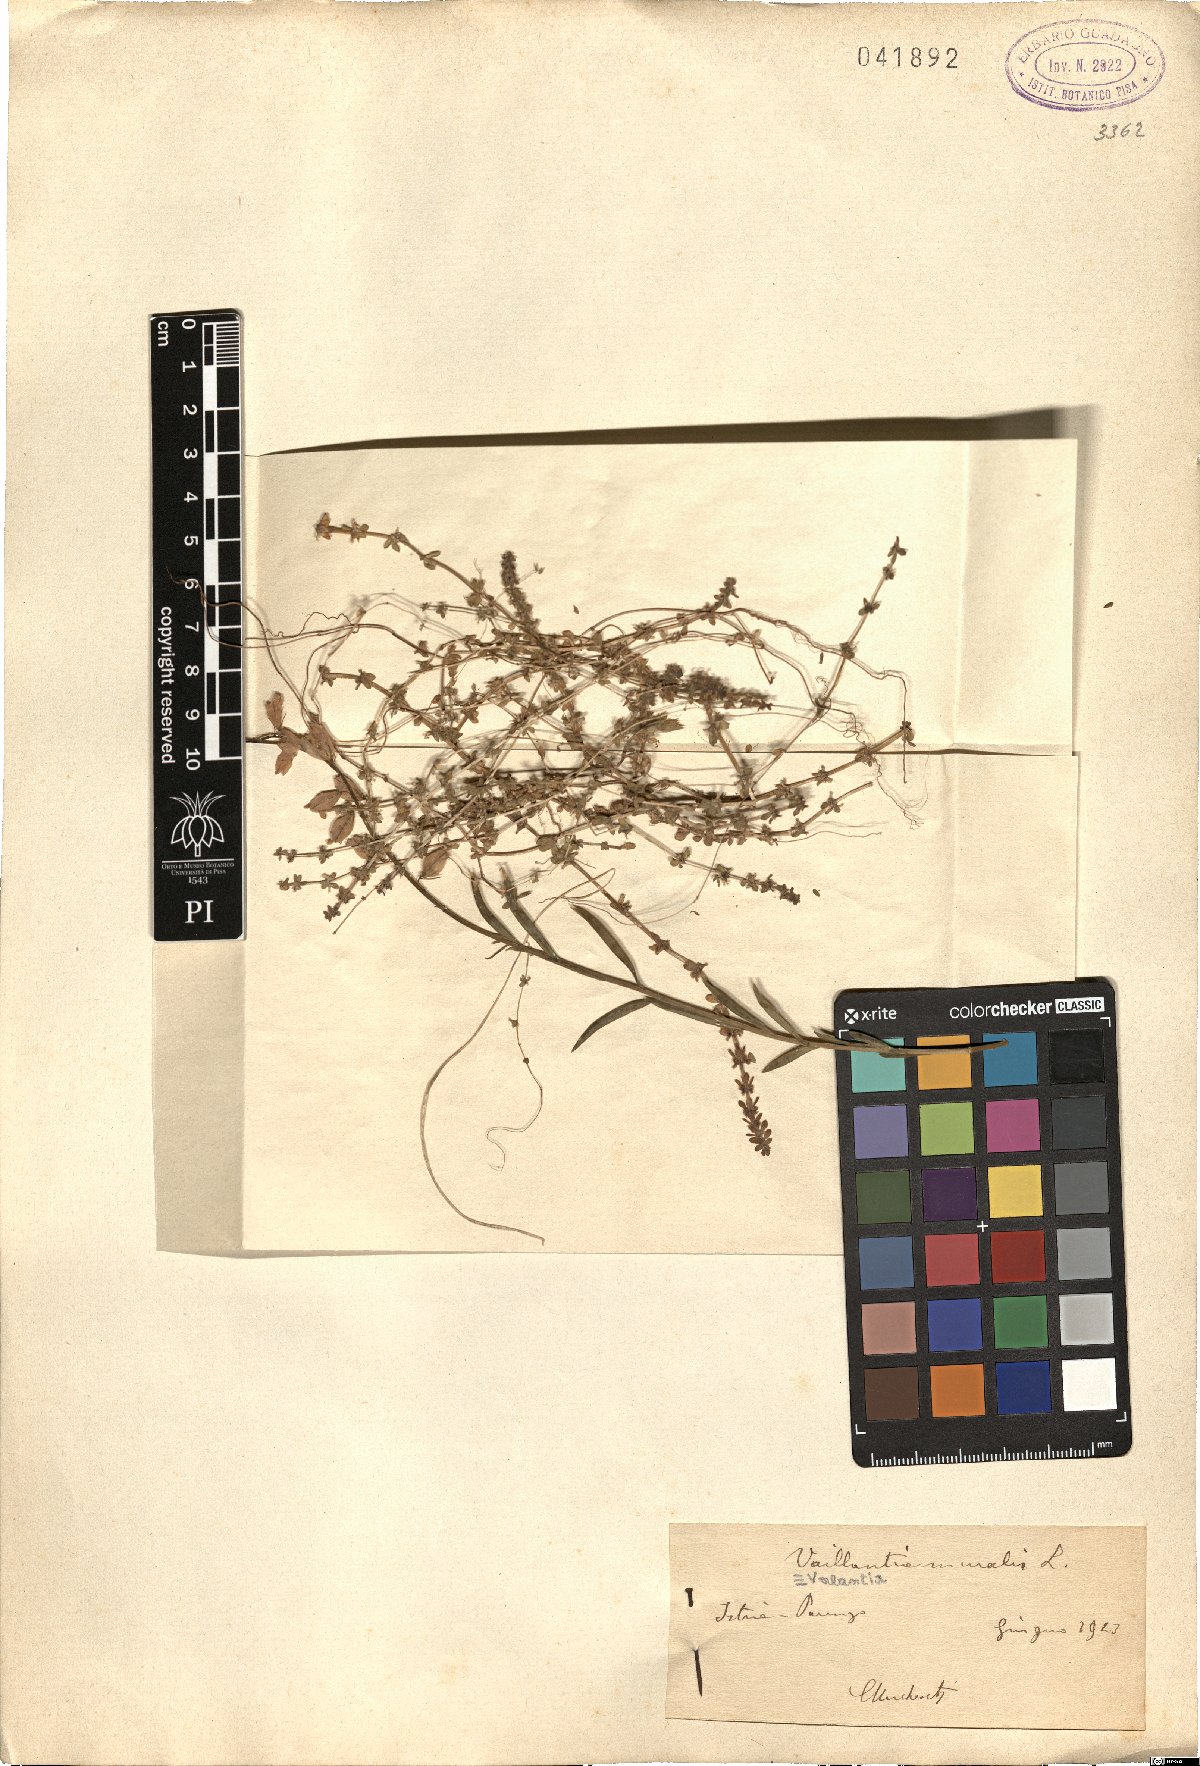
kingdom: Plantae
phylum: Tracheophyta
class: Magnoliopsida
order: Gentianales
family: Rubiaceae
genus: Valantia
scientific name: Valantia muralis
